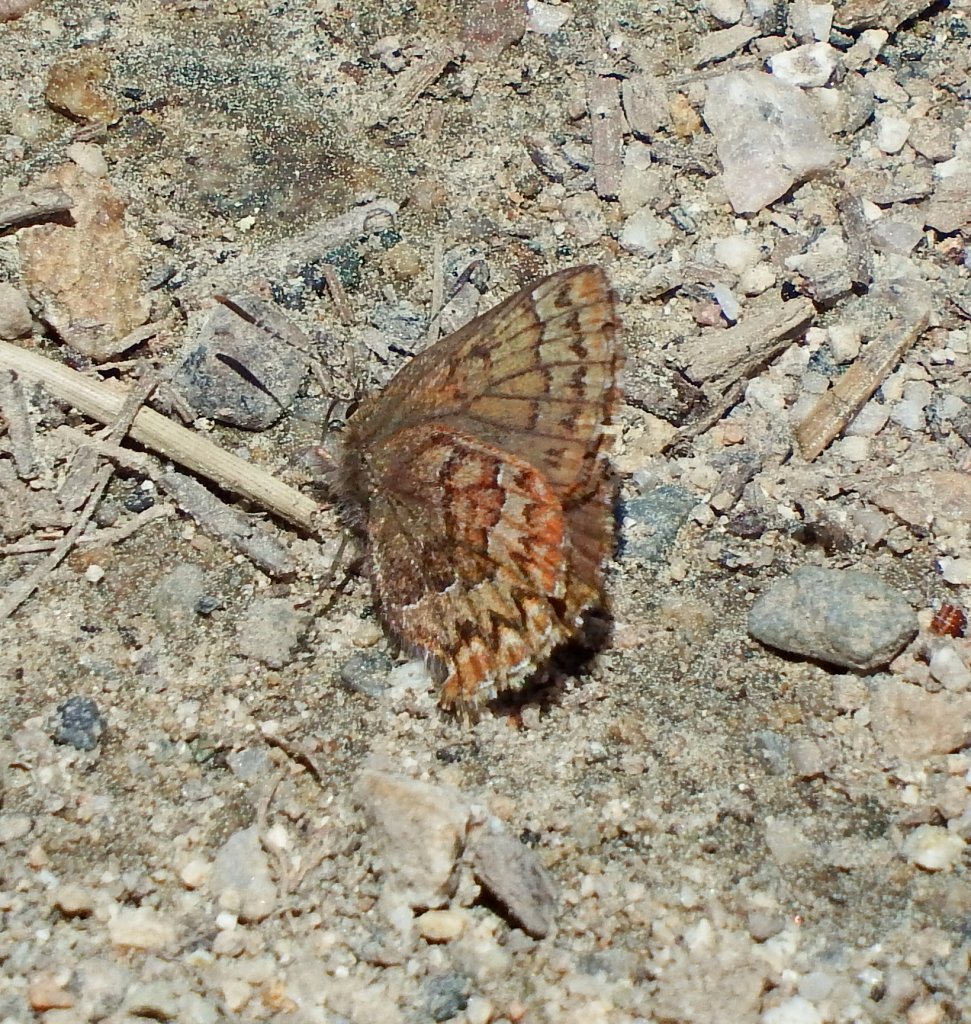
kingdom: Animalia
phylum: Arthropoda
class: Insecta
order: Lepidoptera
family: Lycaenidae
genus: Incisalia
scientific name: Incisalia eryphon
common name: Western Pine Elfin
